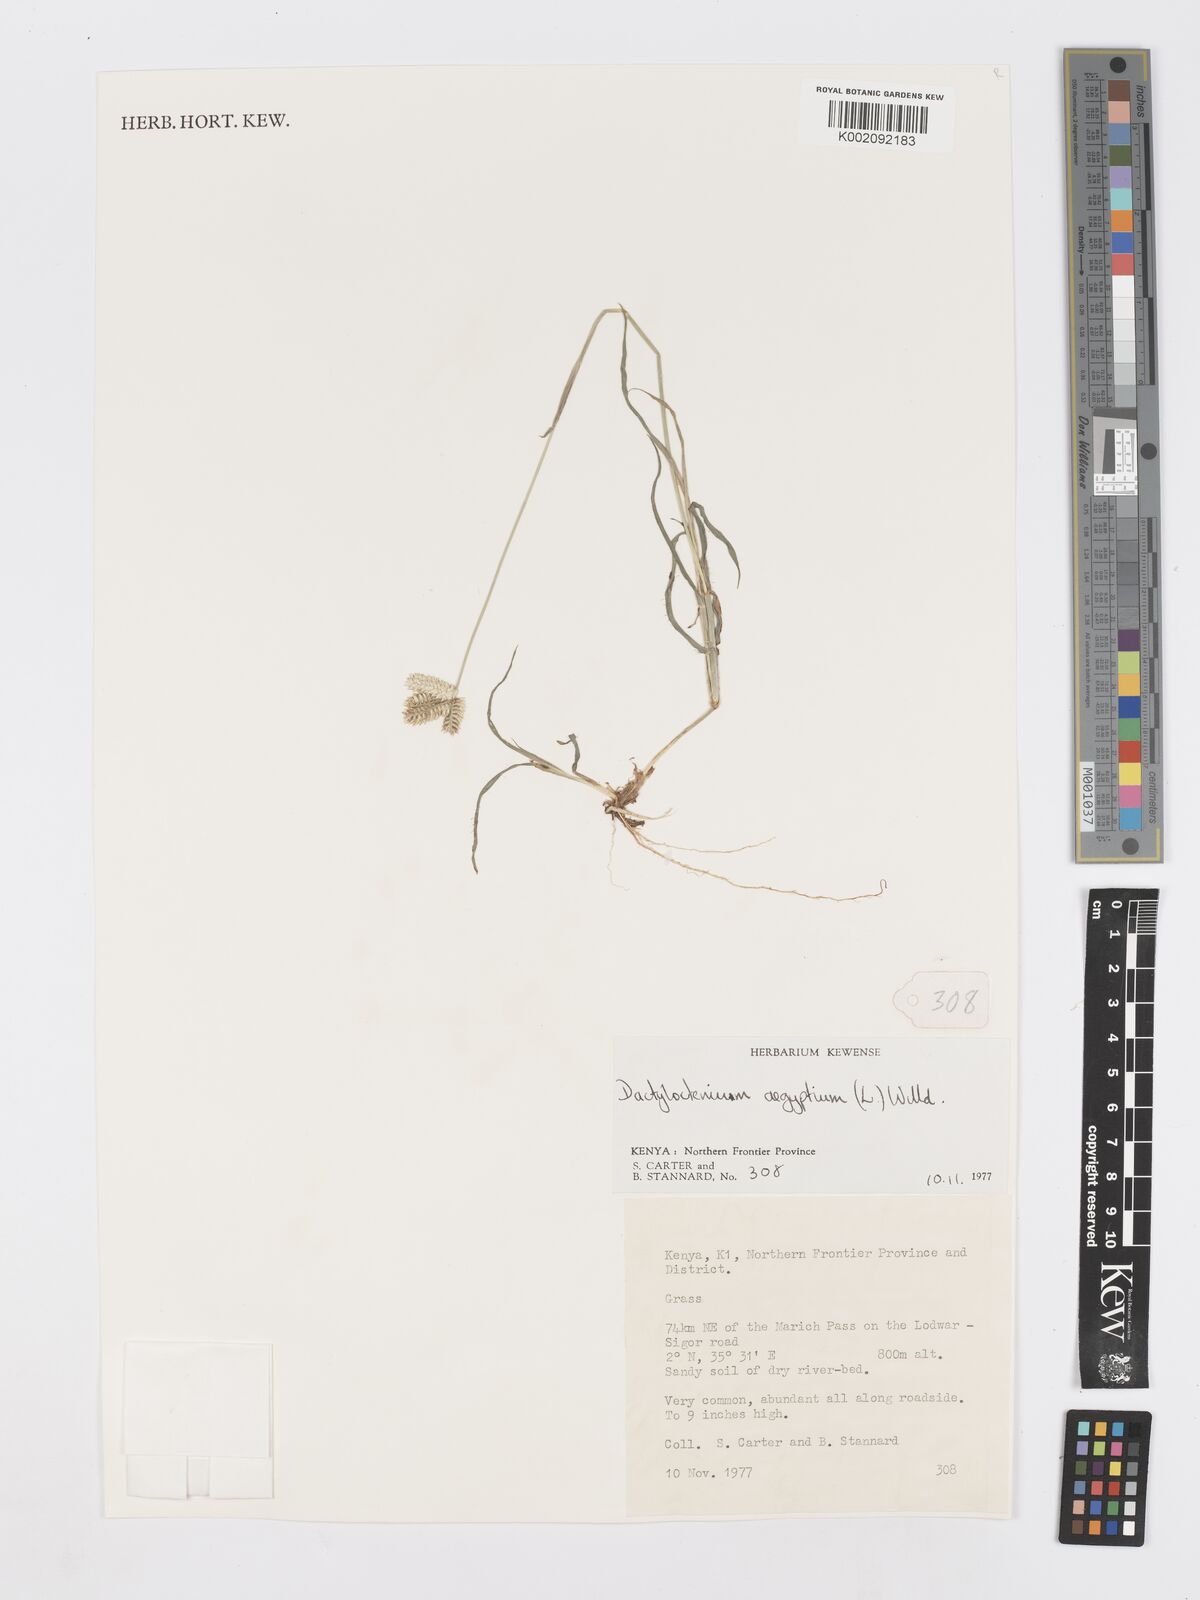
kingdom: Plantae
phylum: Tracheophyta
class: Liliopsida
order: Poales
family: Poaceae
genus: Dactyloctenium
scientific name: Dactyloctenium aegyptium
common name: Egyptian grass
